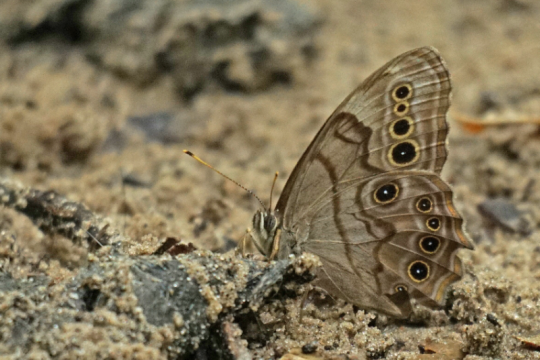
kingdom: Animalia
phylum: Arthropoda
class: Insecta
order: Lepidoptera
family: Nymphalidae
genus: Lethe
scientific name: Lethe anthedon
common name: Northern Pearly-Eye
